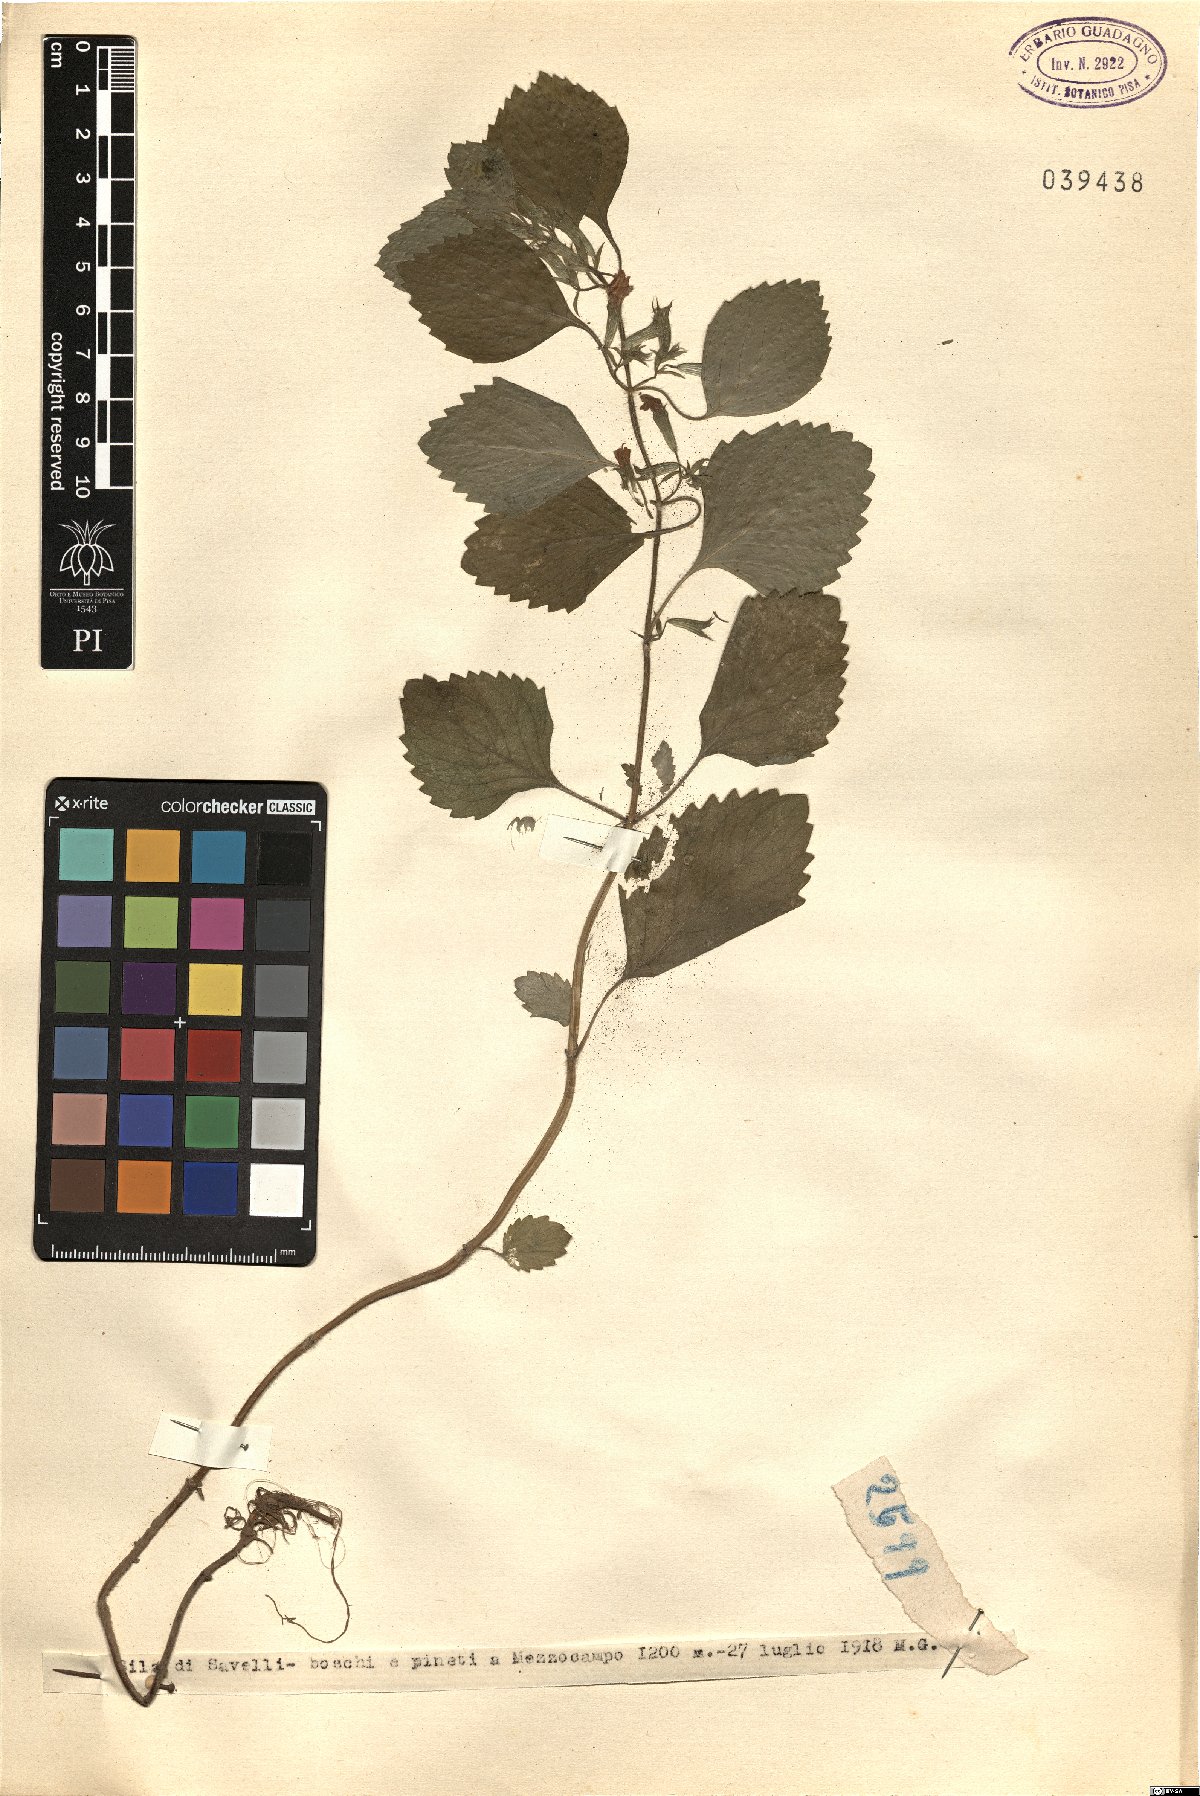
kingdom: Plantae
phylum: Tracheophyta
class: Magnoliopsida
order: Lamiales
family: Lamiaceae
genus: Calamintha
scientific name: Calamintha
